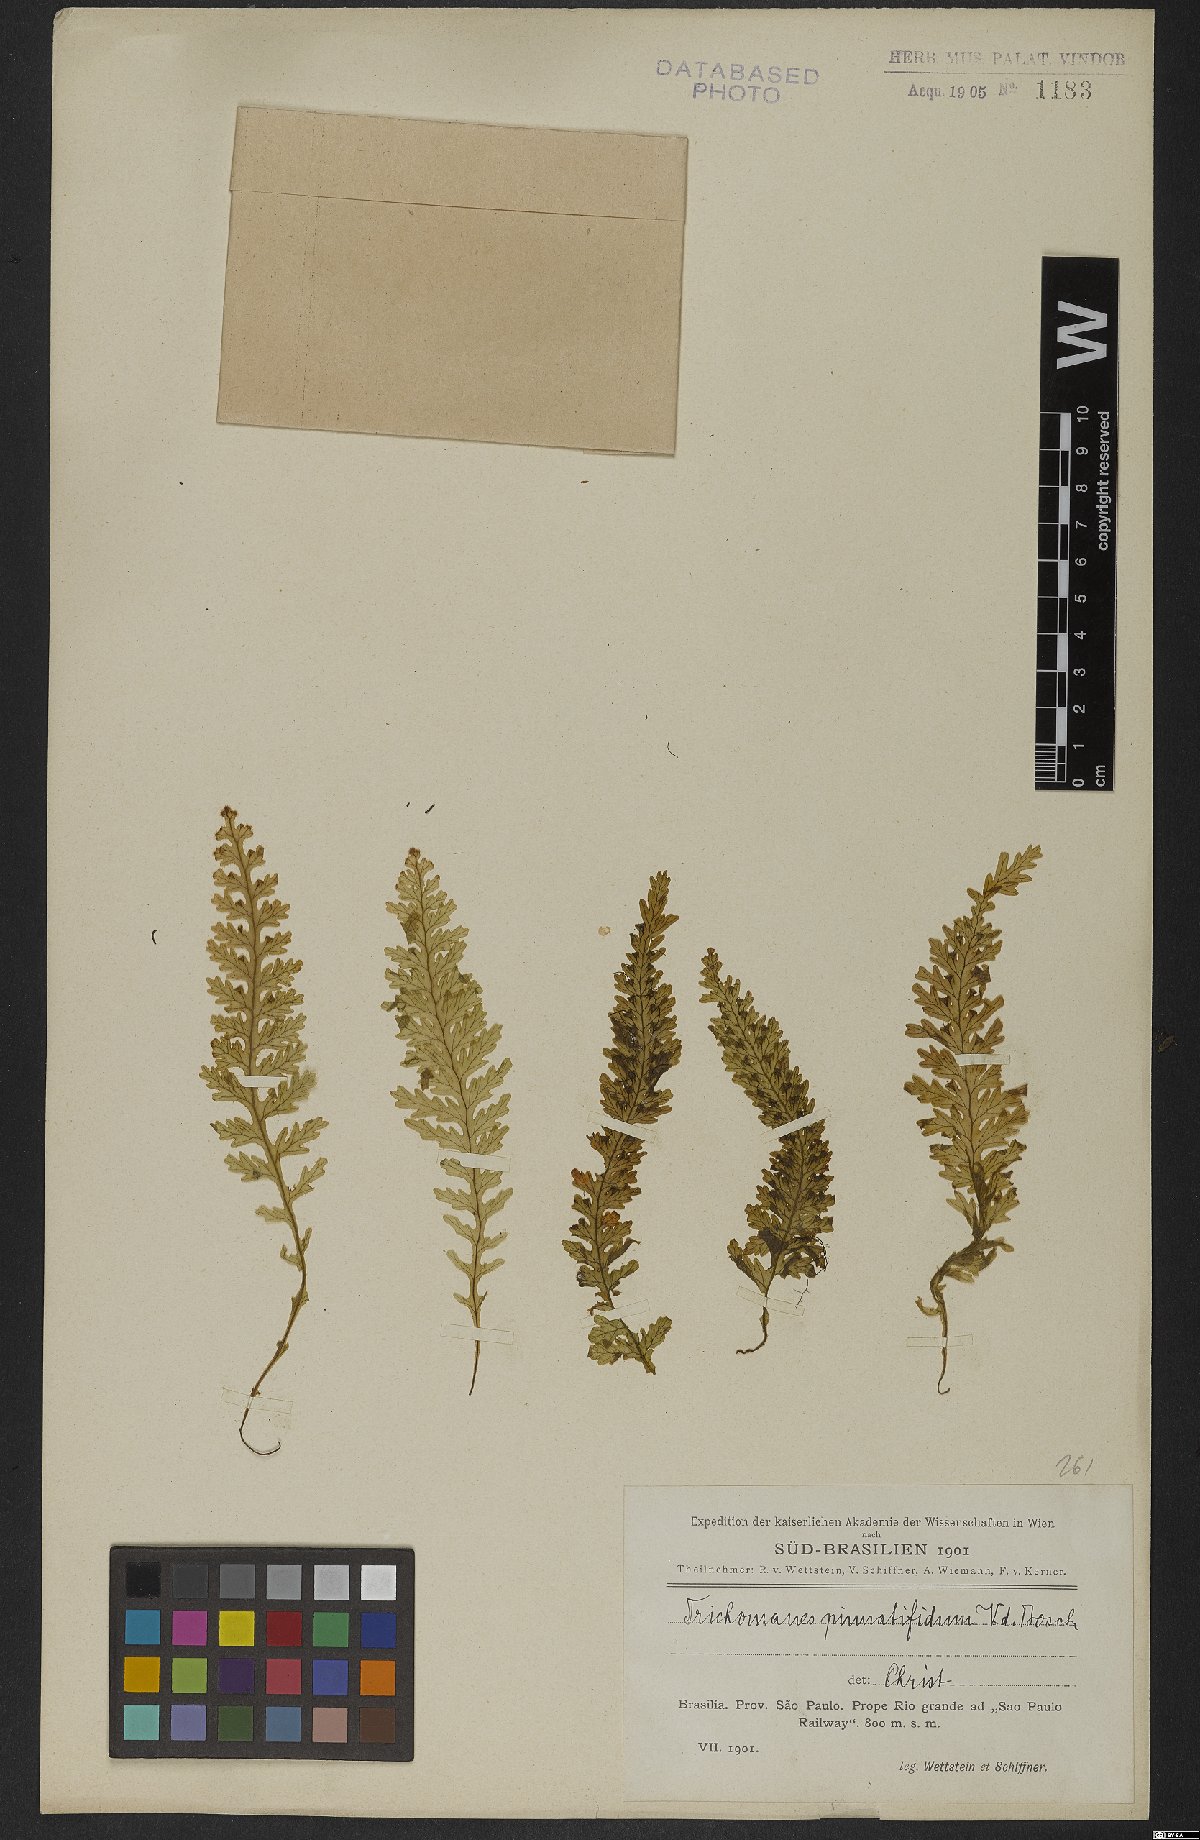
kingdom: Plantae
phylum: Tracheophyta
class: Polypodiopsida
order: Hymenophyllales
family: Hymenophyllaceae
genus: Trichomanes
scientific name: Trichomanes pinnatifidum
